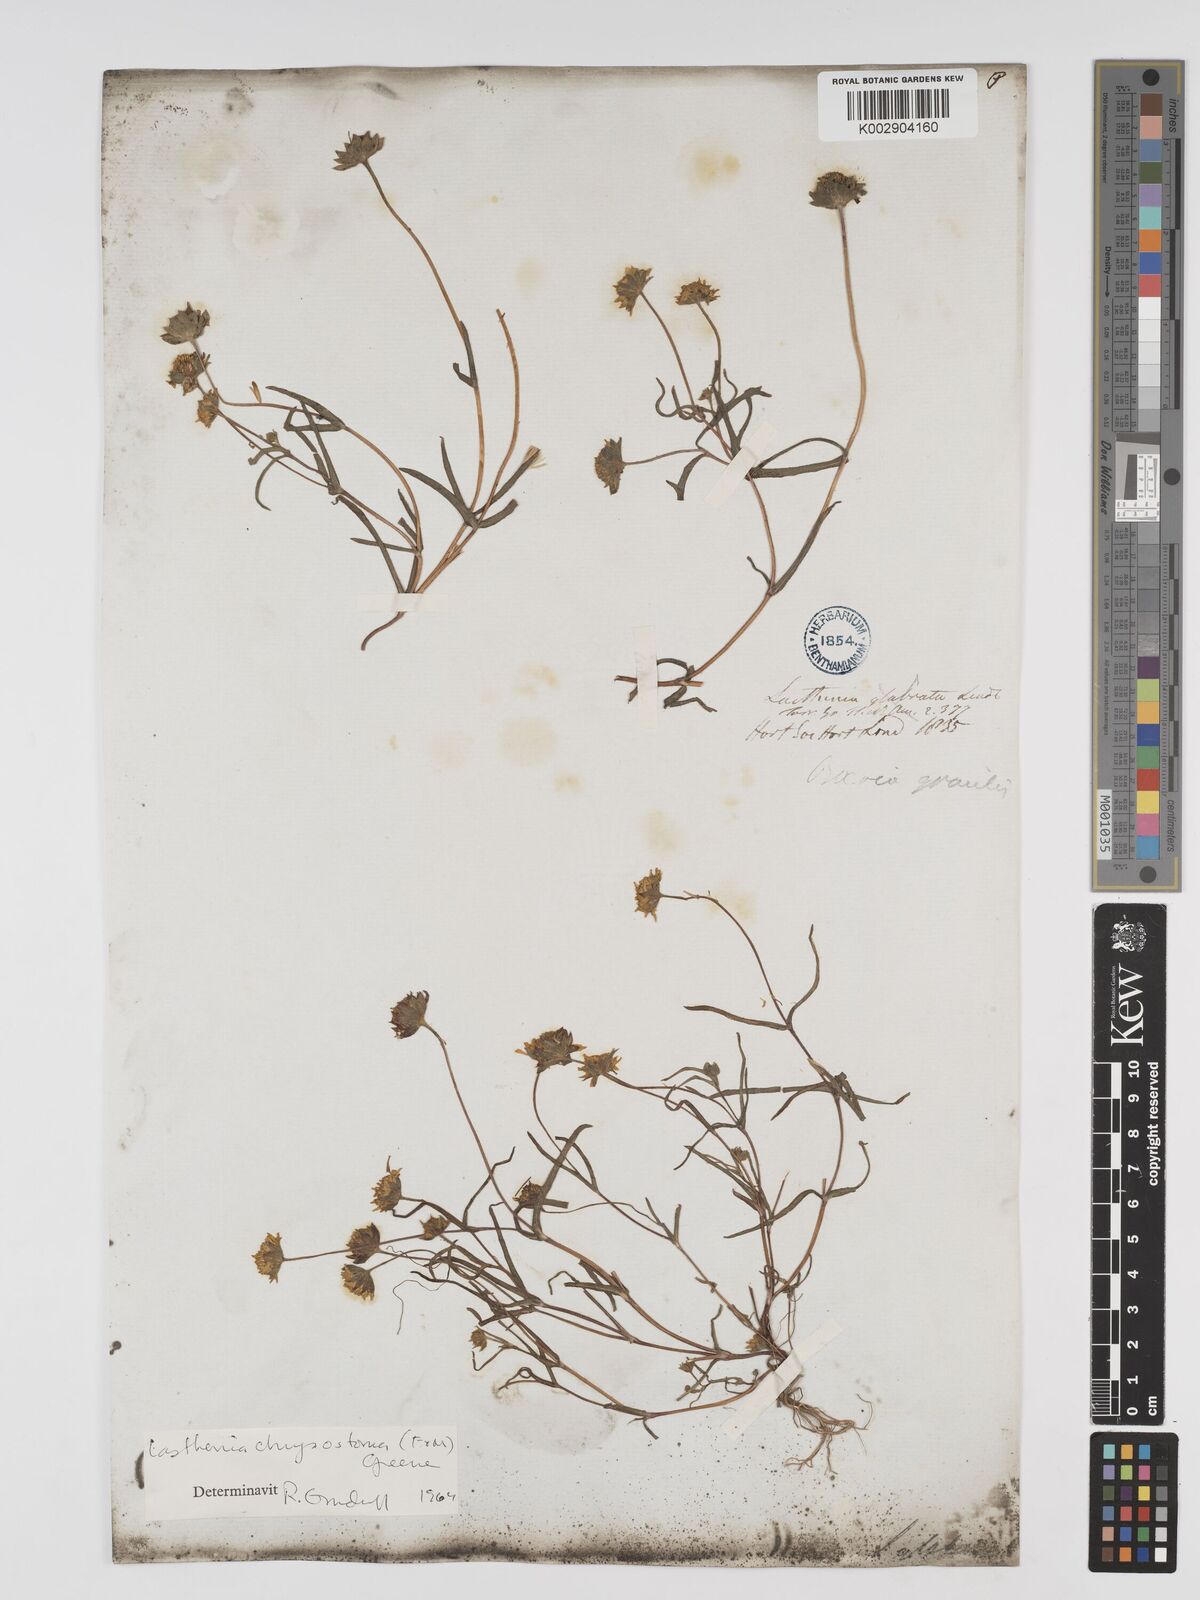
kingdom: Plantae
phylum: Tracheophyta
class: Magnoliopsida
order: Asterales
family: Asteraceae
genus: Lasthenia
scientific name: Lasthenia californica
